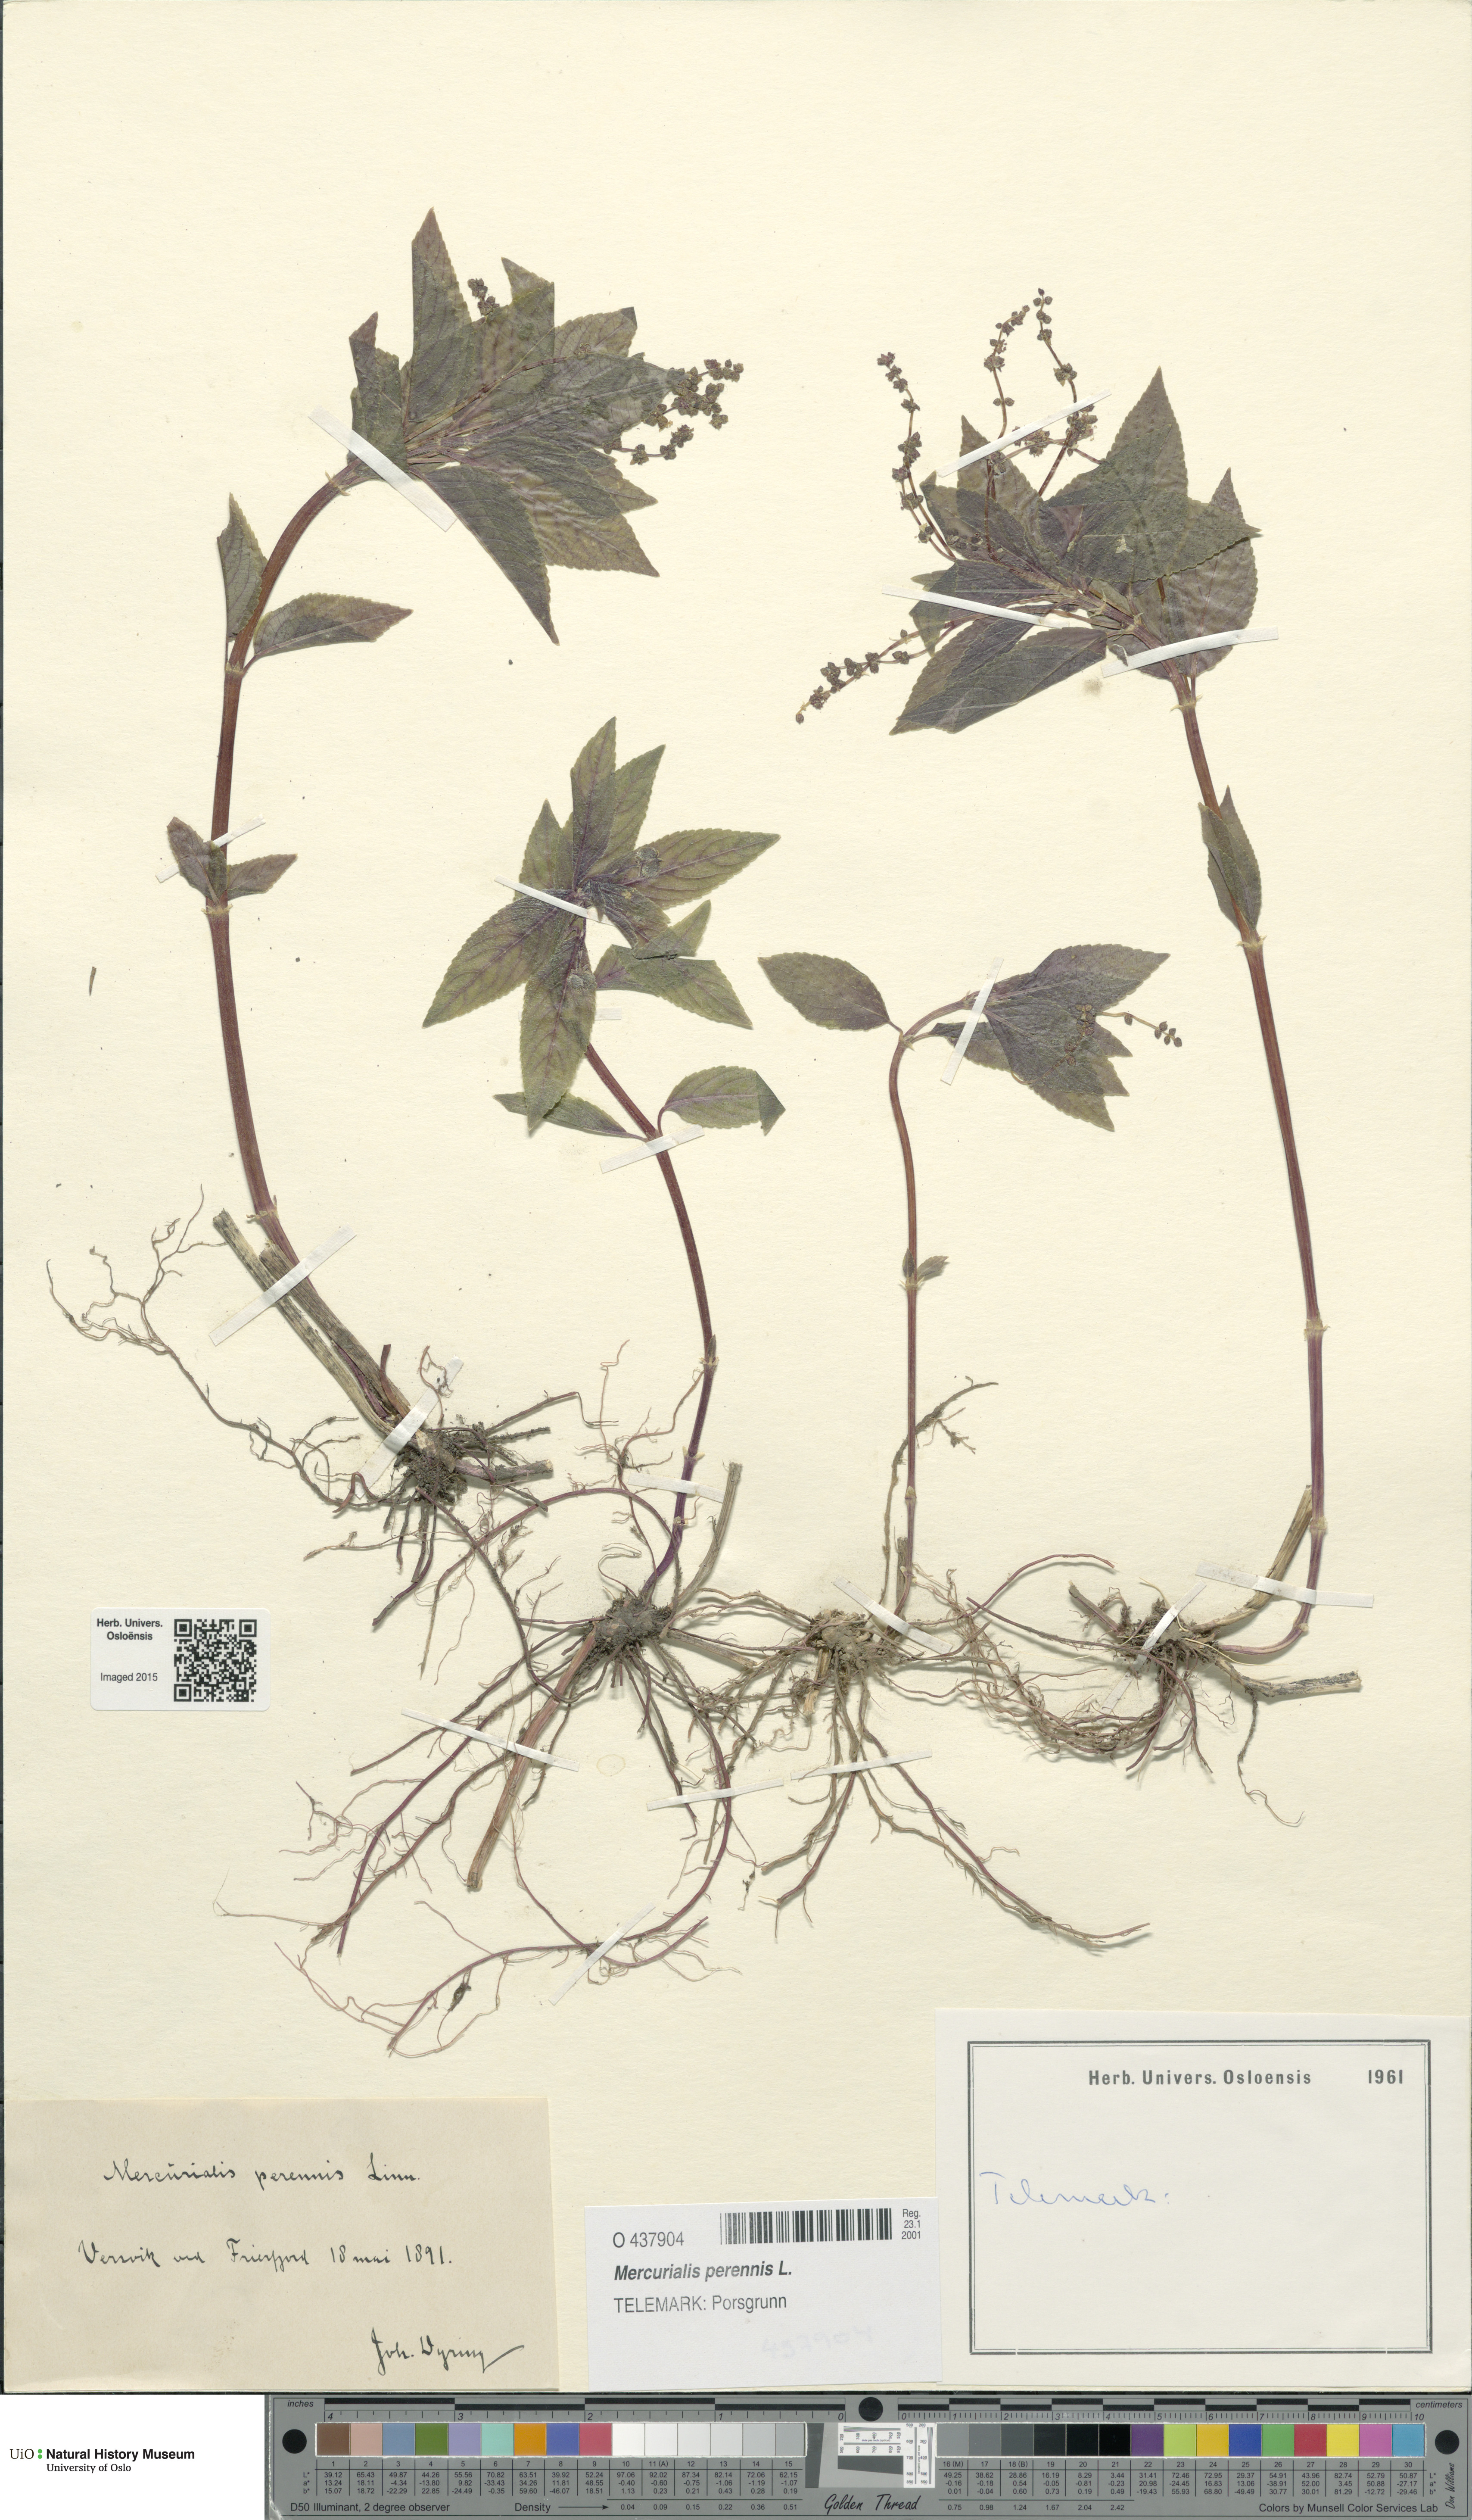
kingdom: Plantae
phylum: Tracheophyta
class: Magnoliopsida
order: Malpighiales
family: Euphorbiaceae
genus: Mercurialis
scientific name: Mercurialis perennis
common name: Dog mercury
